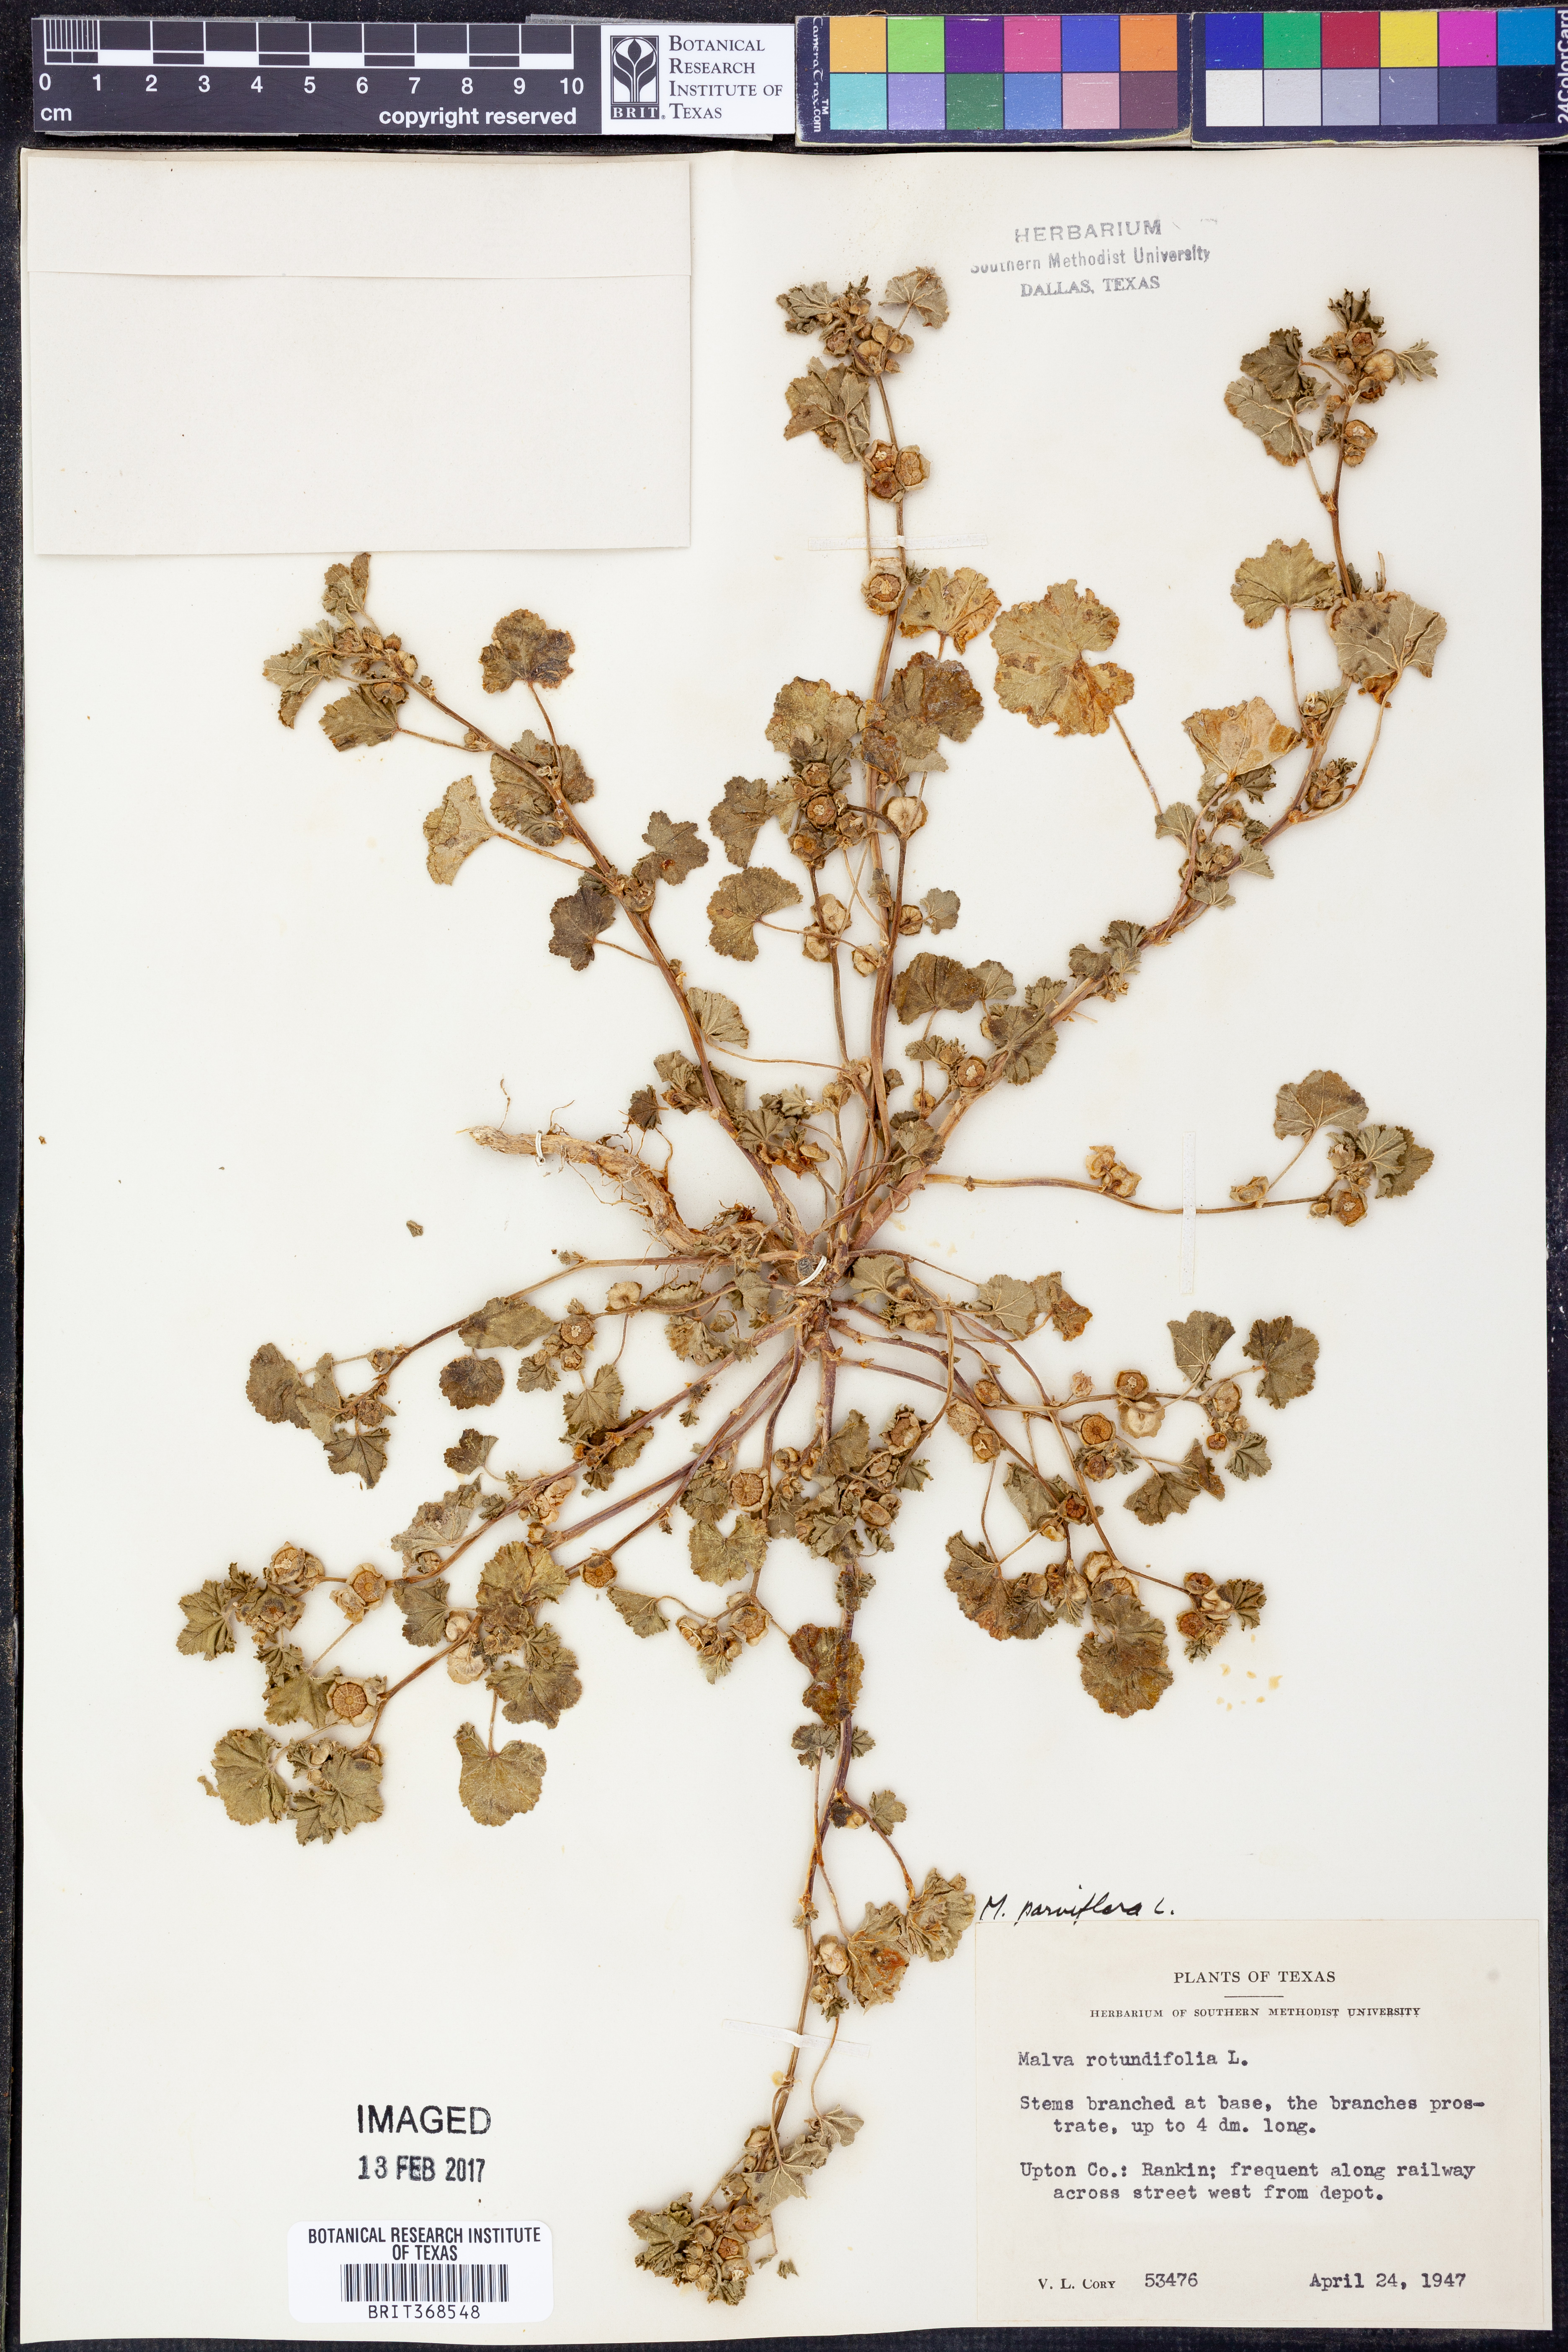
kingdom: Plantae
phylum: Tracheophyta
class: Magnoliopsida
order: Malvales
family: Malvaceae
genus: Malva
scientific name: Malva parviflora
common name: Least mallow
